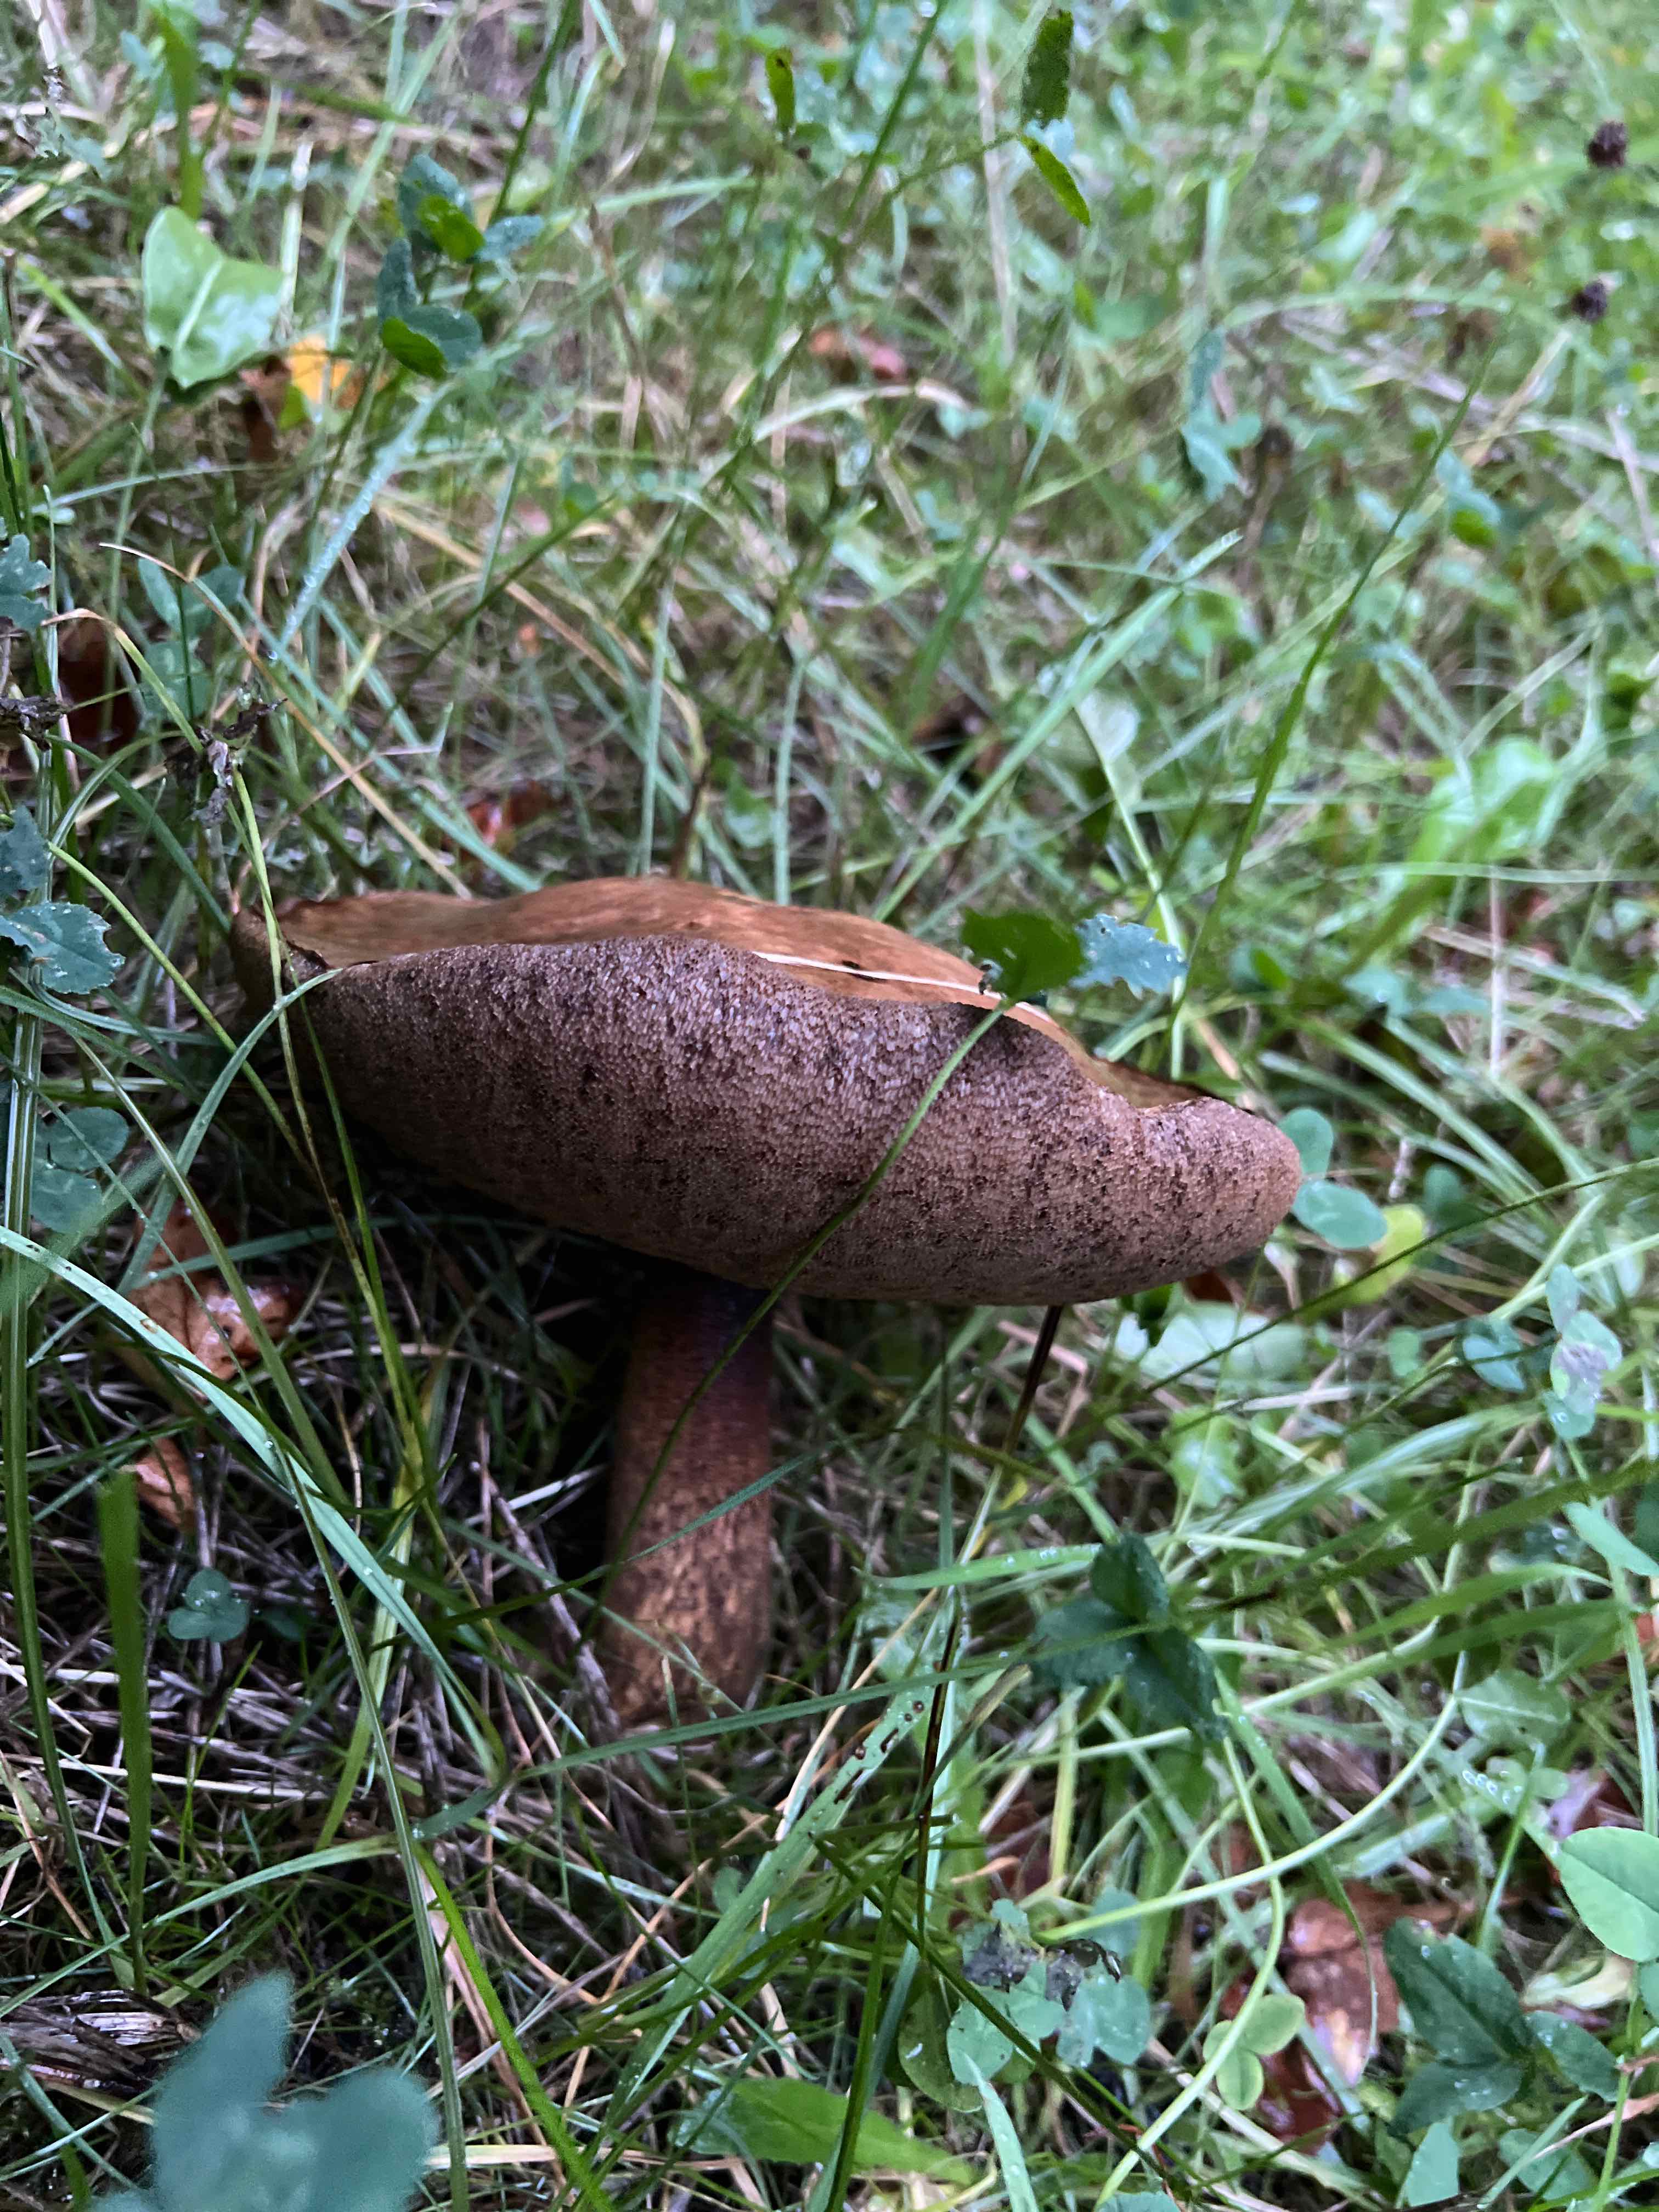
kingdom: Fungi
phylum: Basidiomycota
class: Agaricomycetes
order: Boletales
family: Boletaceae
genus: Leccinum
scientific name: Leccinum
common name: skælrørhat
